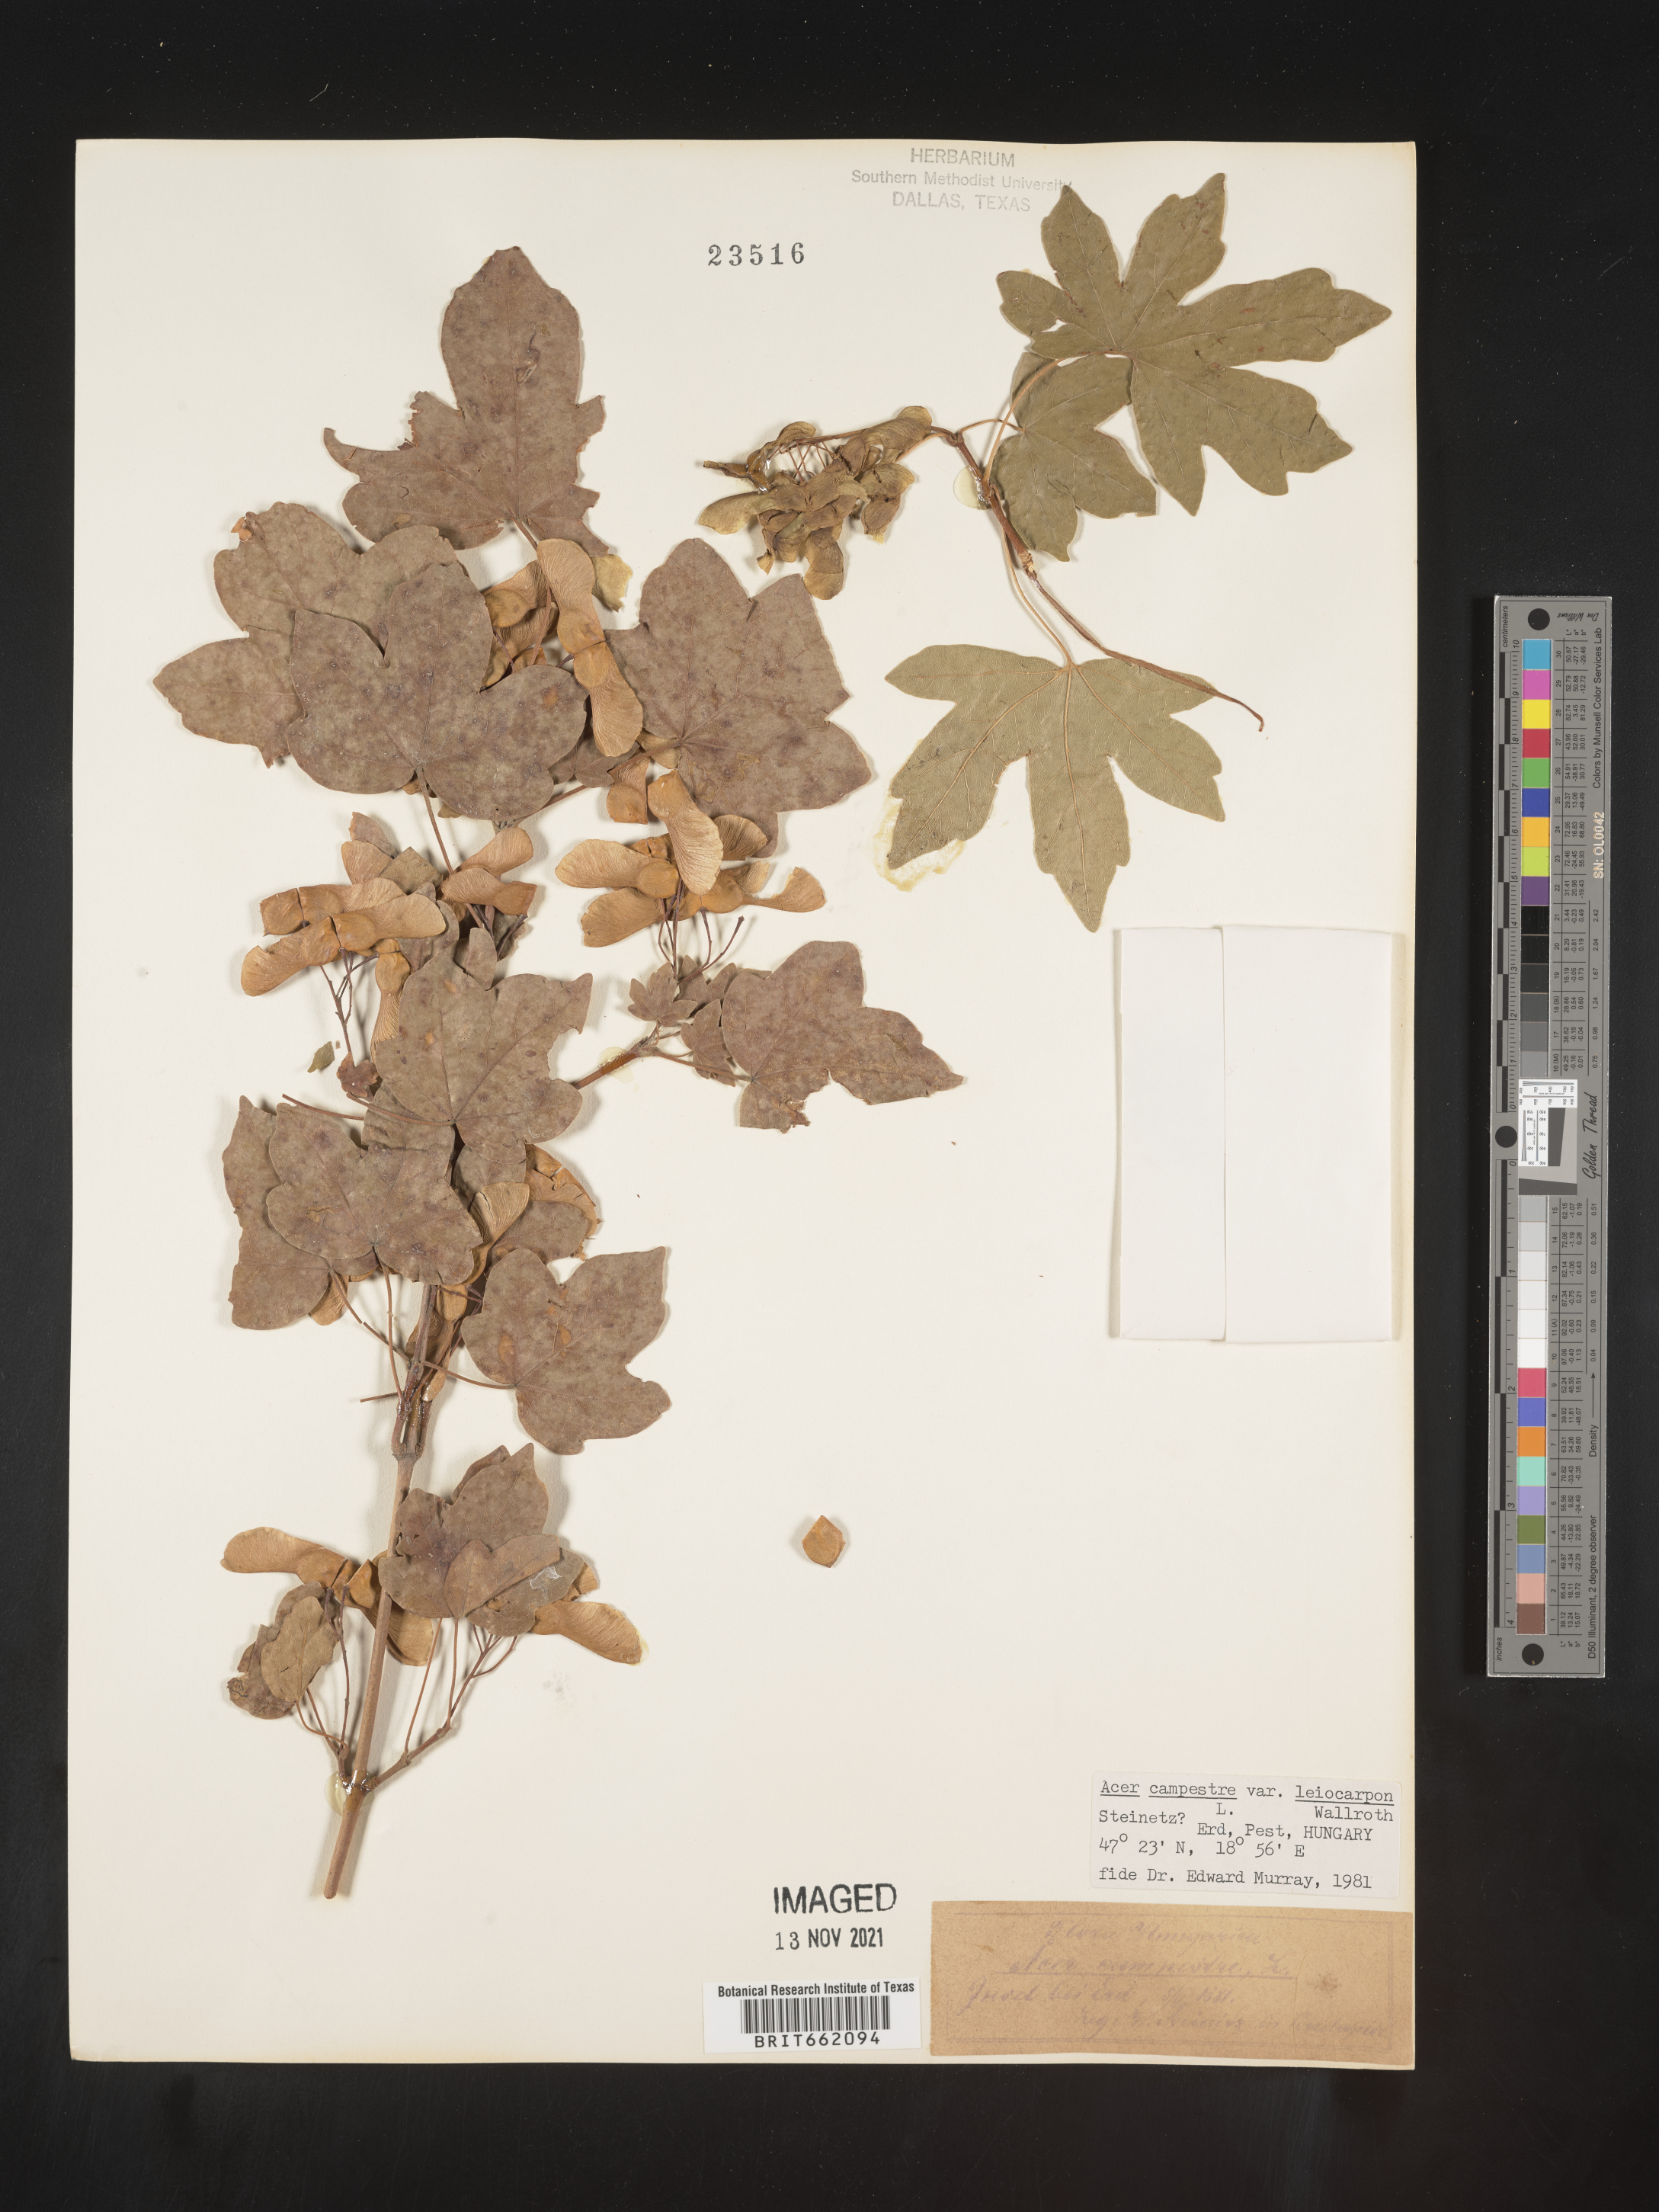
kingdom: Plantae
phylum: Tracheophyta
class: Magnoliopsida
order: Sapindales
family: Sapindaceae
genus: Acer
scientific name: Acer
